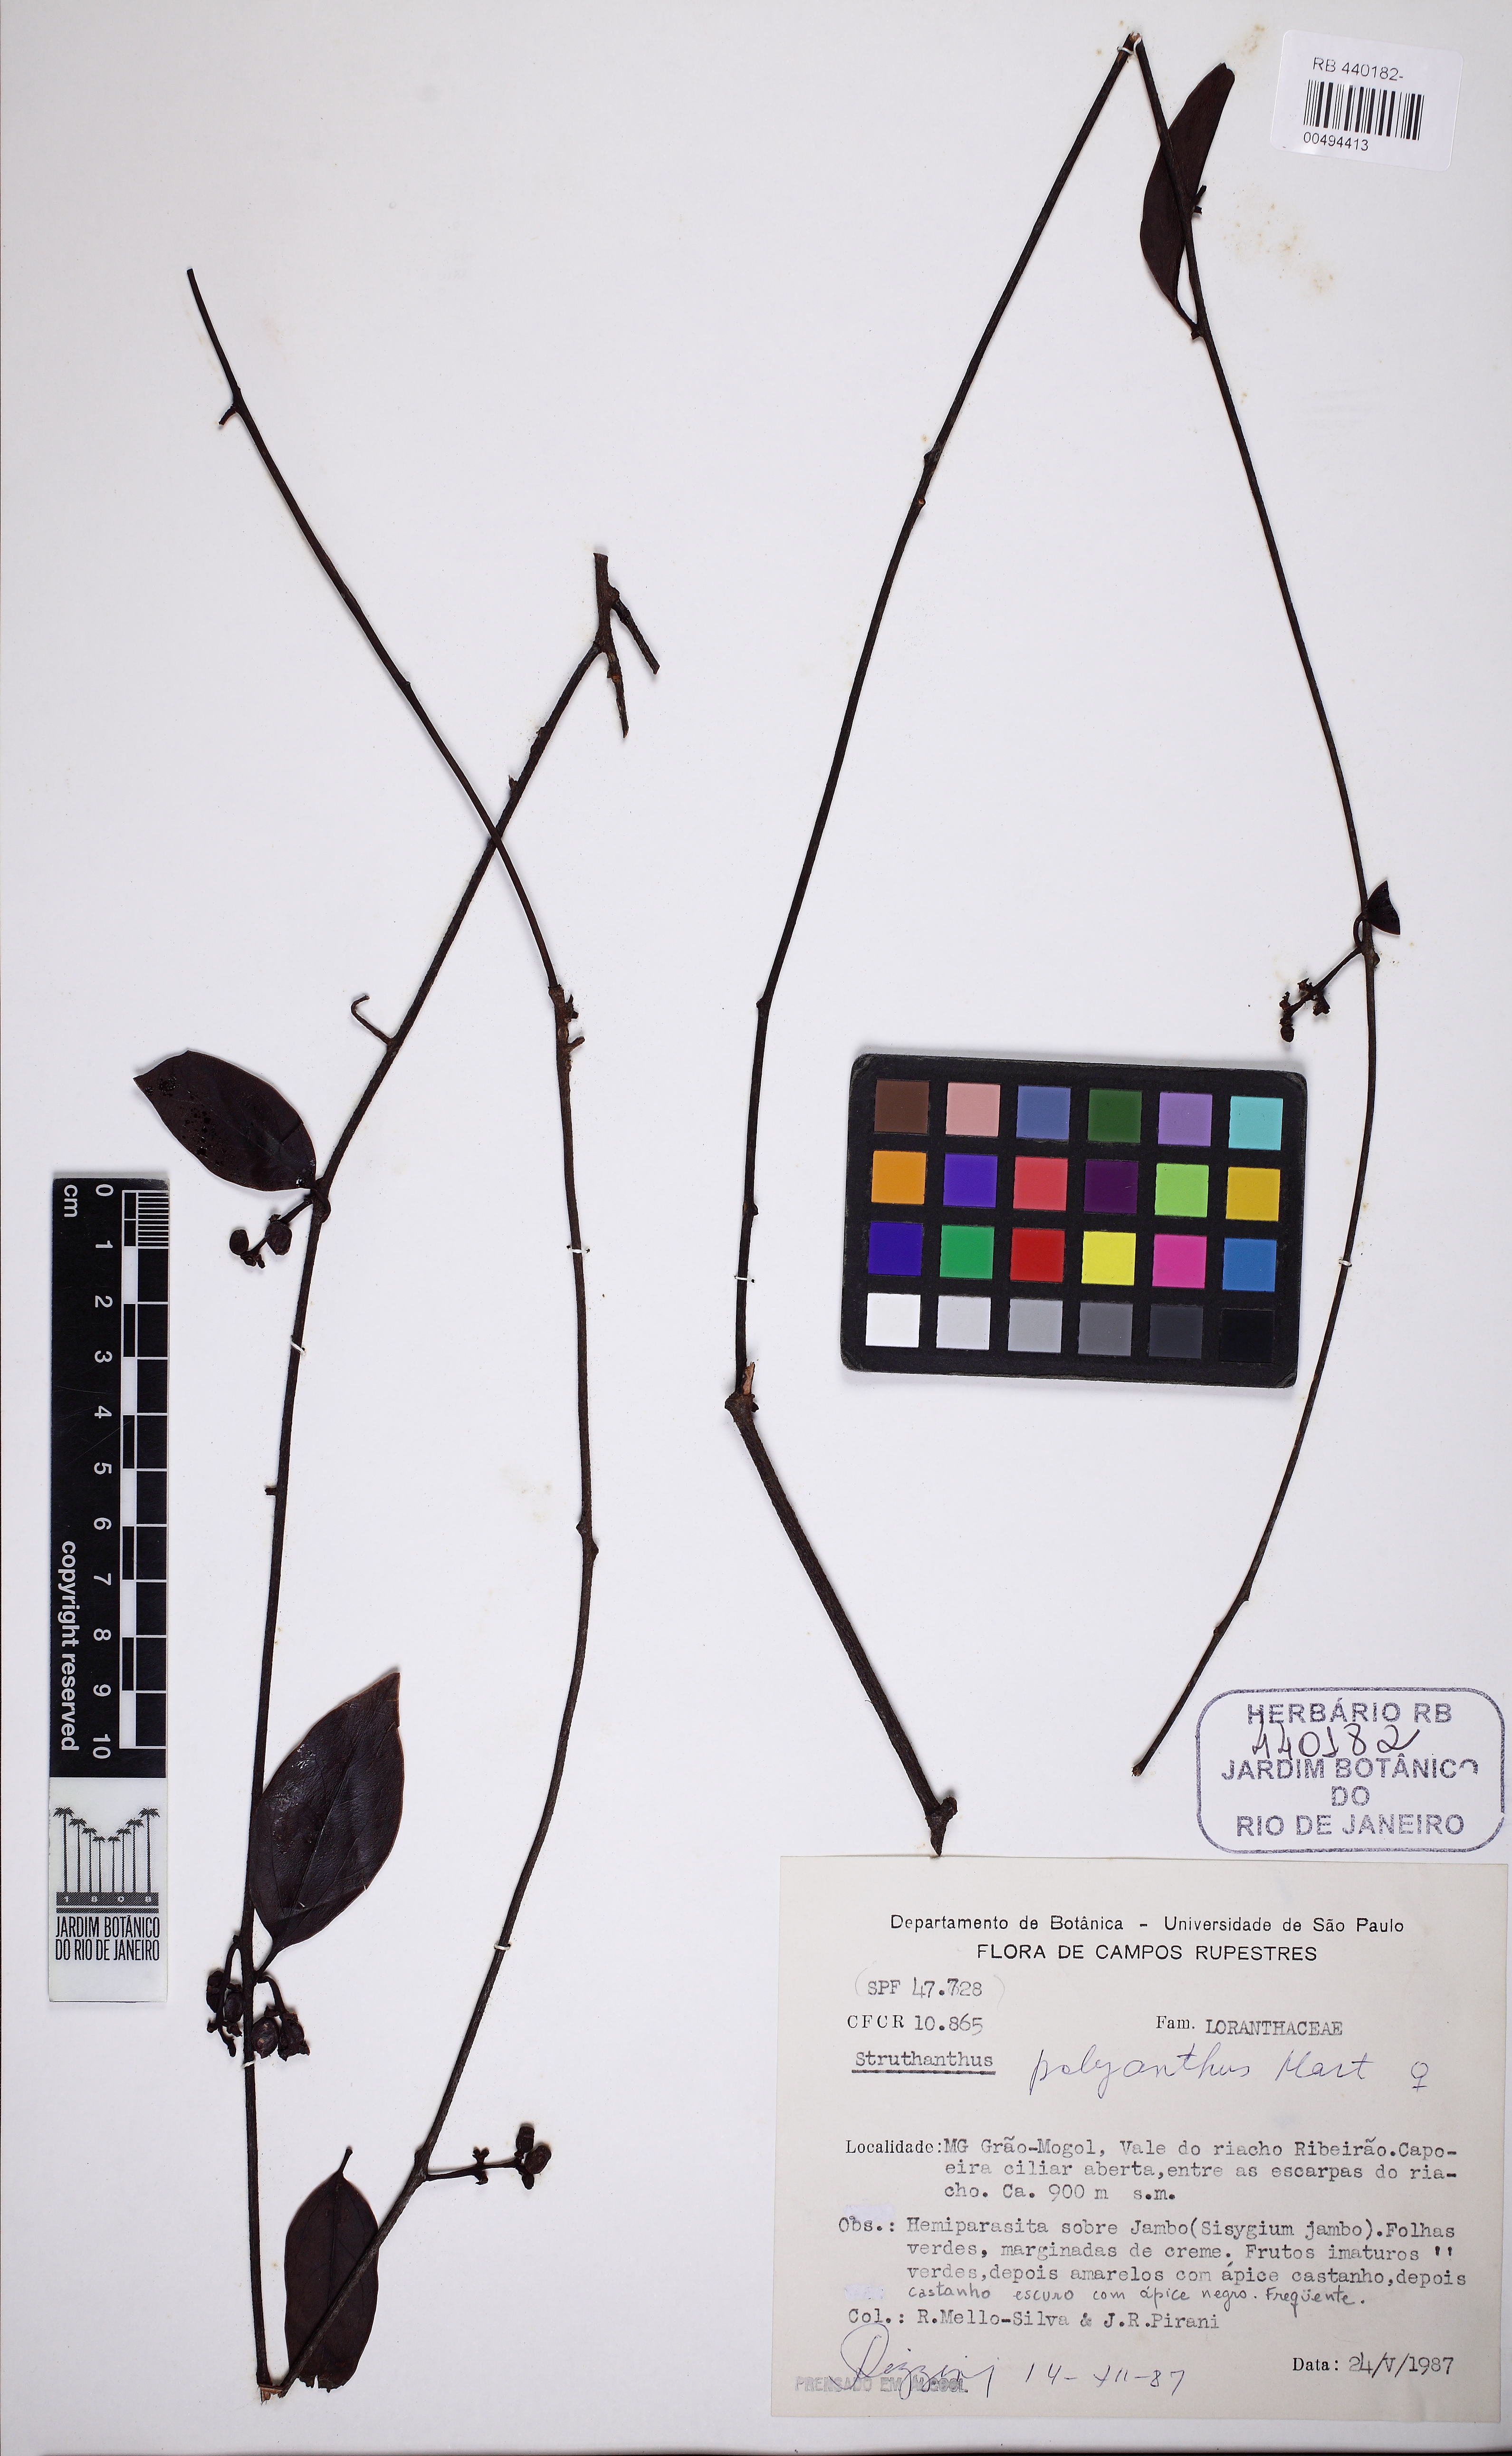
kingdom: Plantae
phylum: Tracheophyta
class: Magnoliopsida
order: Santalales
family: Loranthaceae
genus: Struthanthus
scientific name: Struthanthus polyanthus
